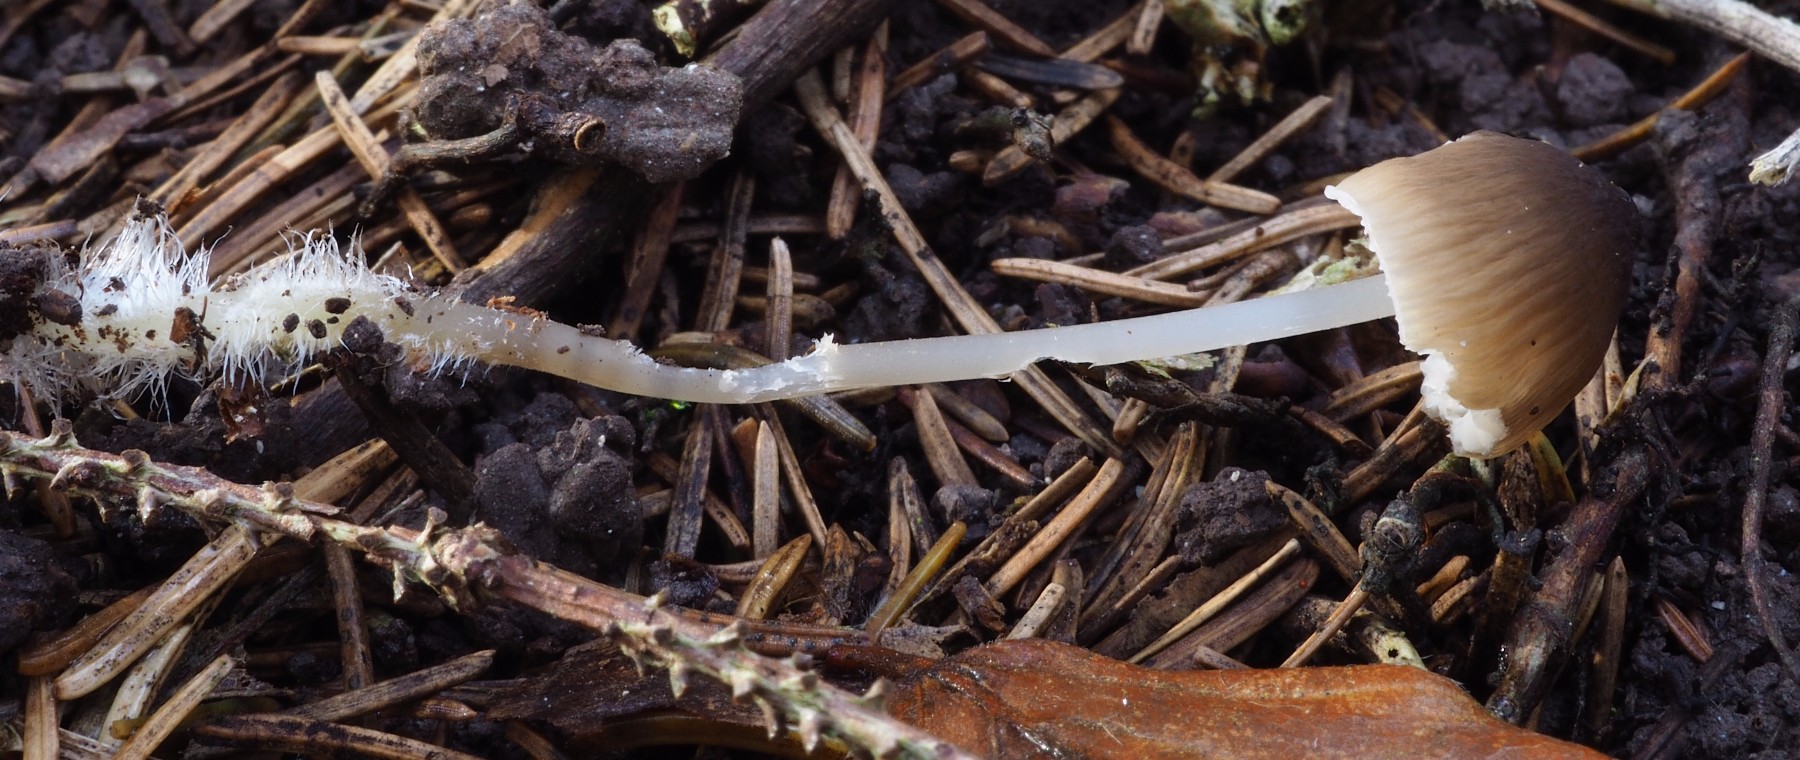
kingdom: Fungi
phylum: Basidiomycota
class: Agaricomycetes
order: Agaricales
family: Porotheleaceae
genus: Phloeomana
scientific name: Phloeomana atropapillata
